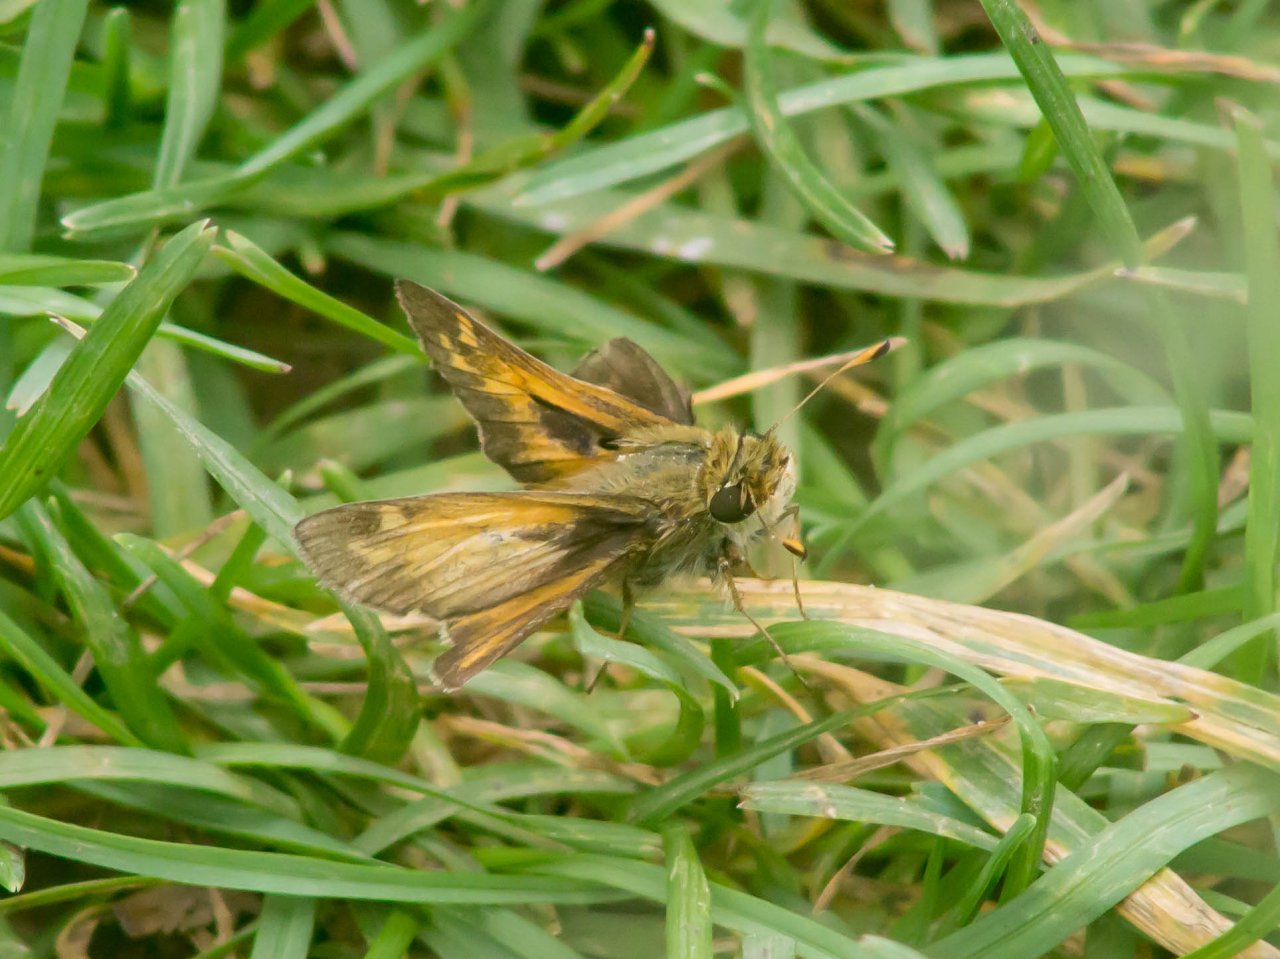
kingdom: Animalia
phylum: Arthropoda
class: Insecta
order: Lepidoptera
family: Hesperiidae
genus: Atalopedes
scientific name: Atalopedes campestris
